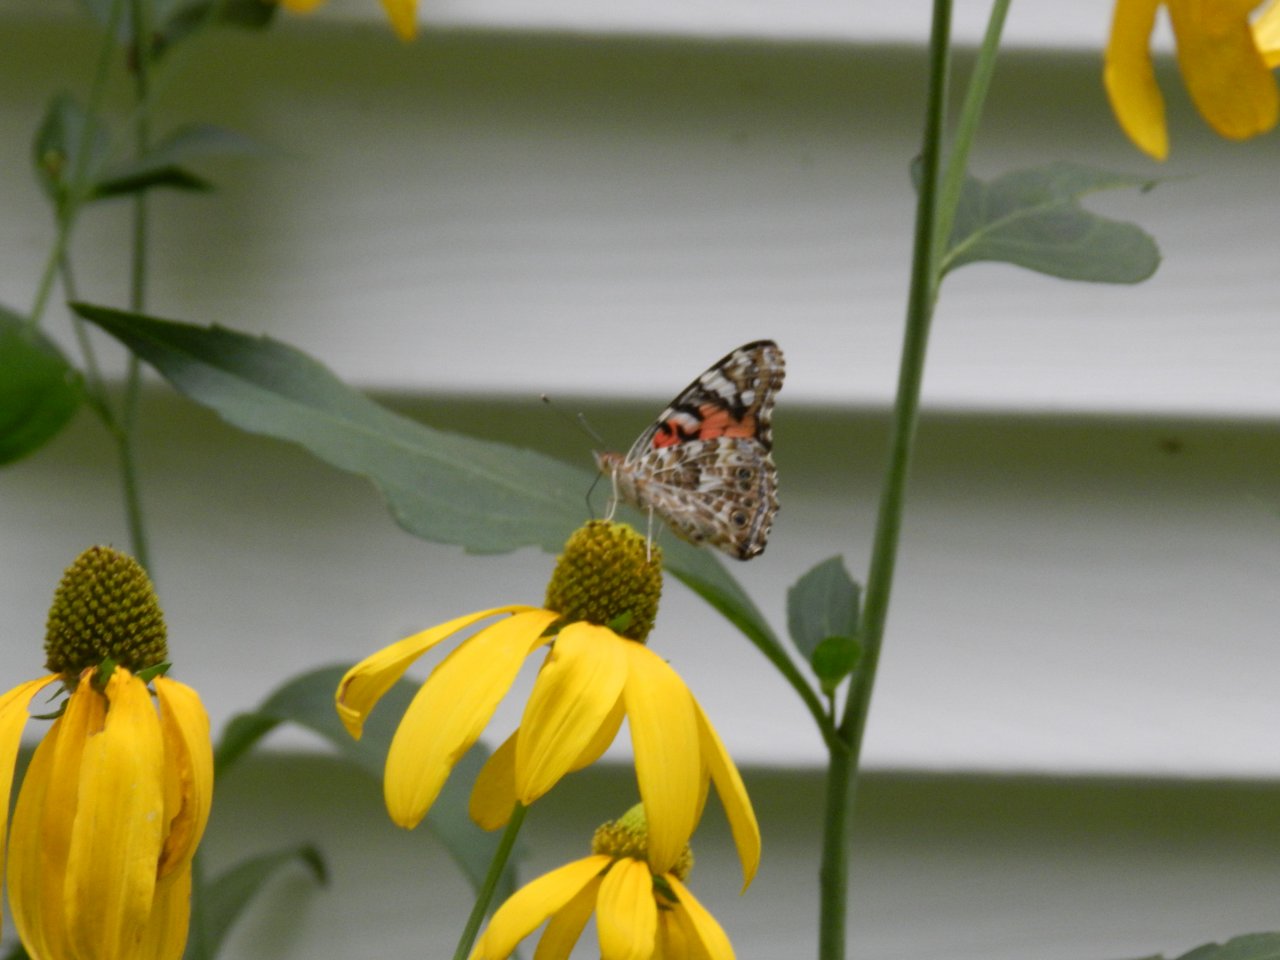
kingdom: Animalia
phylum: Arthropoda
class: Insecta
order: Lepidoptera
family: Nymphalidae
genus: Vanessa
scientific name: Vanessa cardui
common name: Painted Lady
